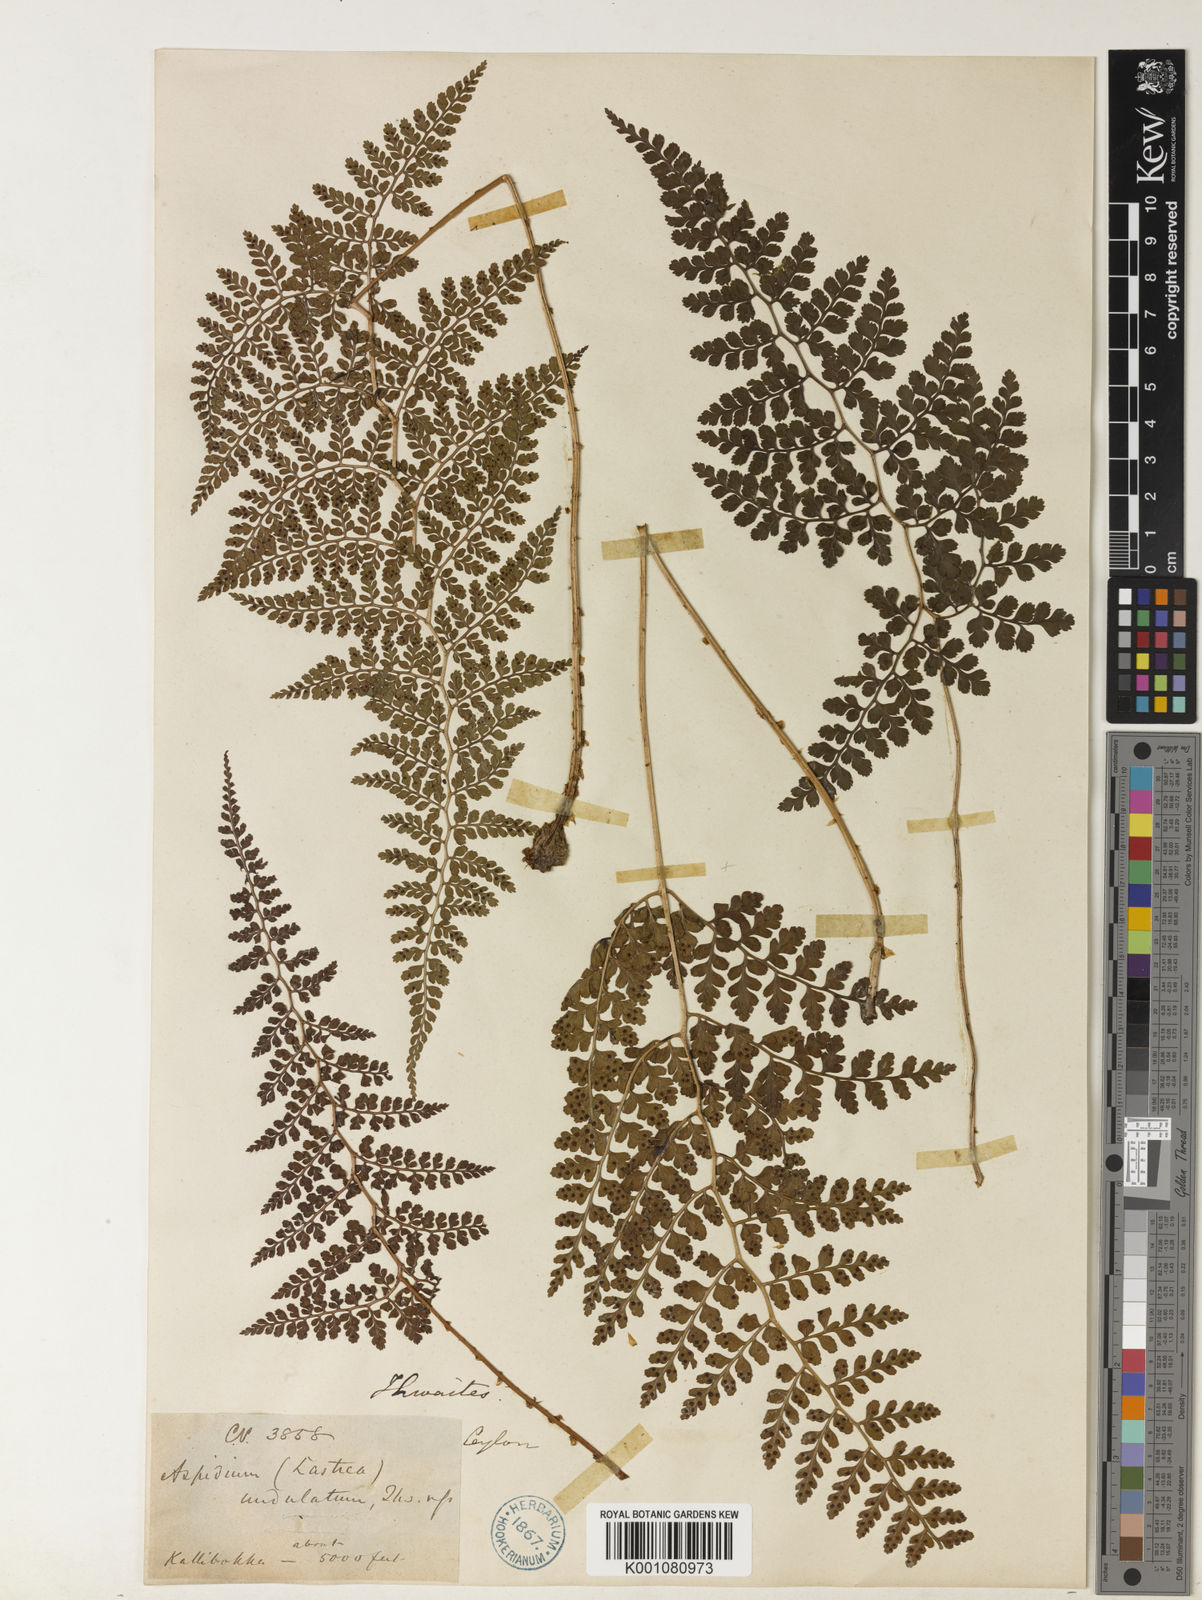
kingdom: Plantae
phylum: Tracheophyta
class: Polypodiopsida
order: Polypodiales
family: Dryopteridaceae
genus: Dryopteris
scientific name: Dryopteris
